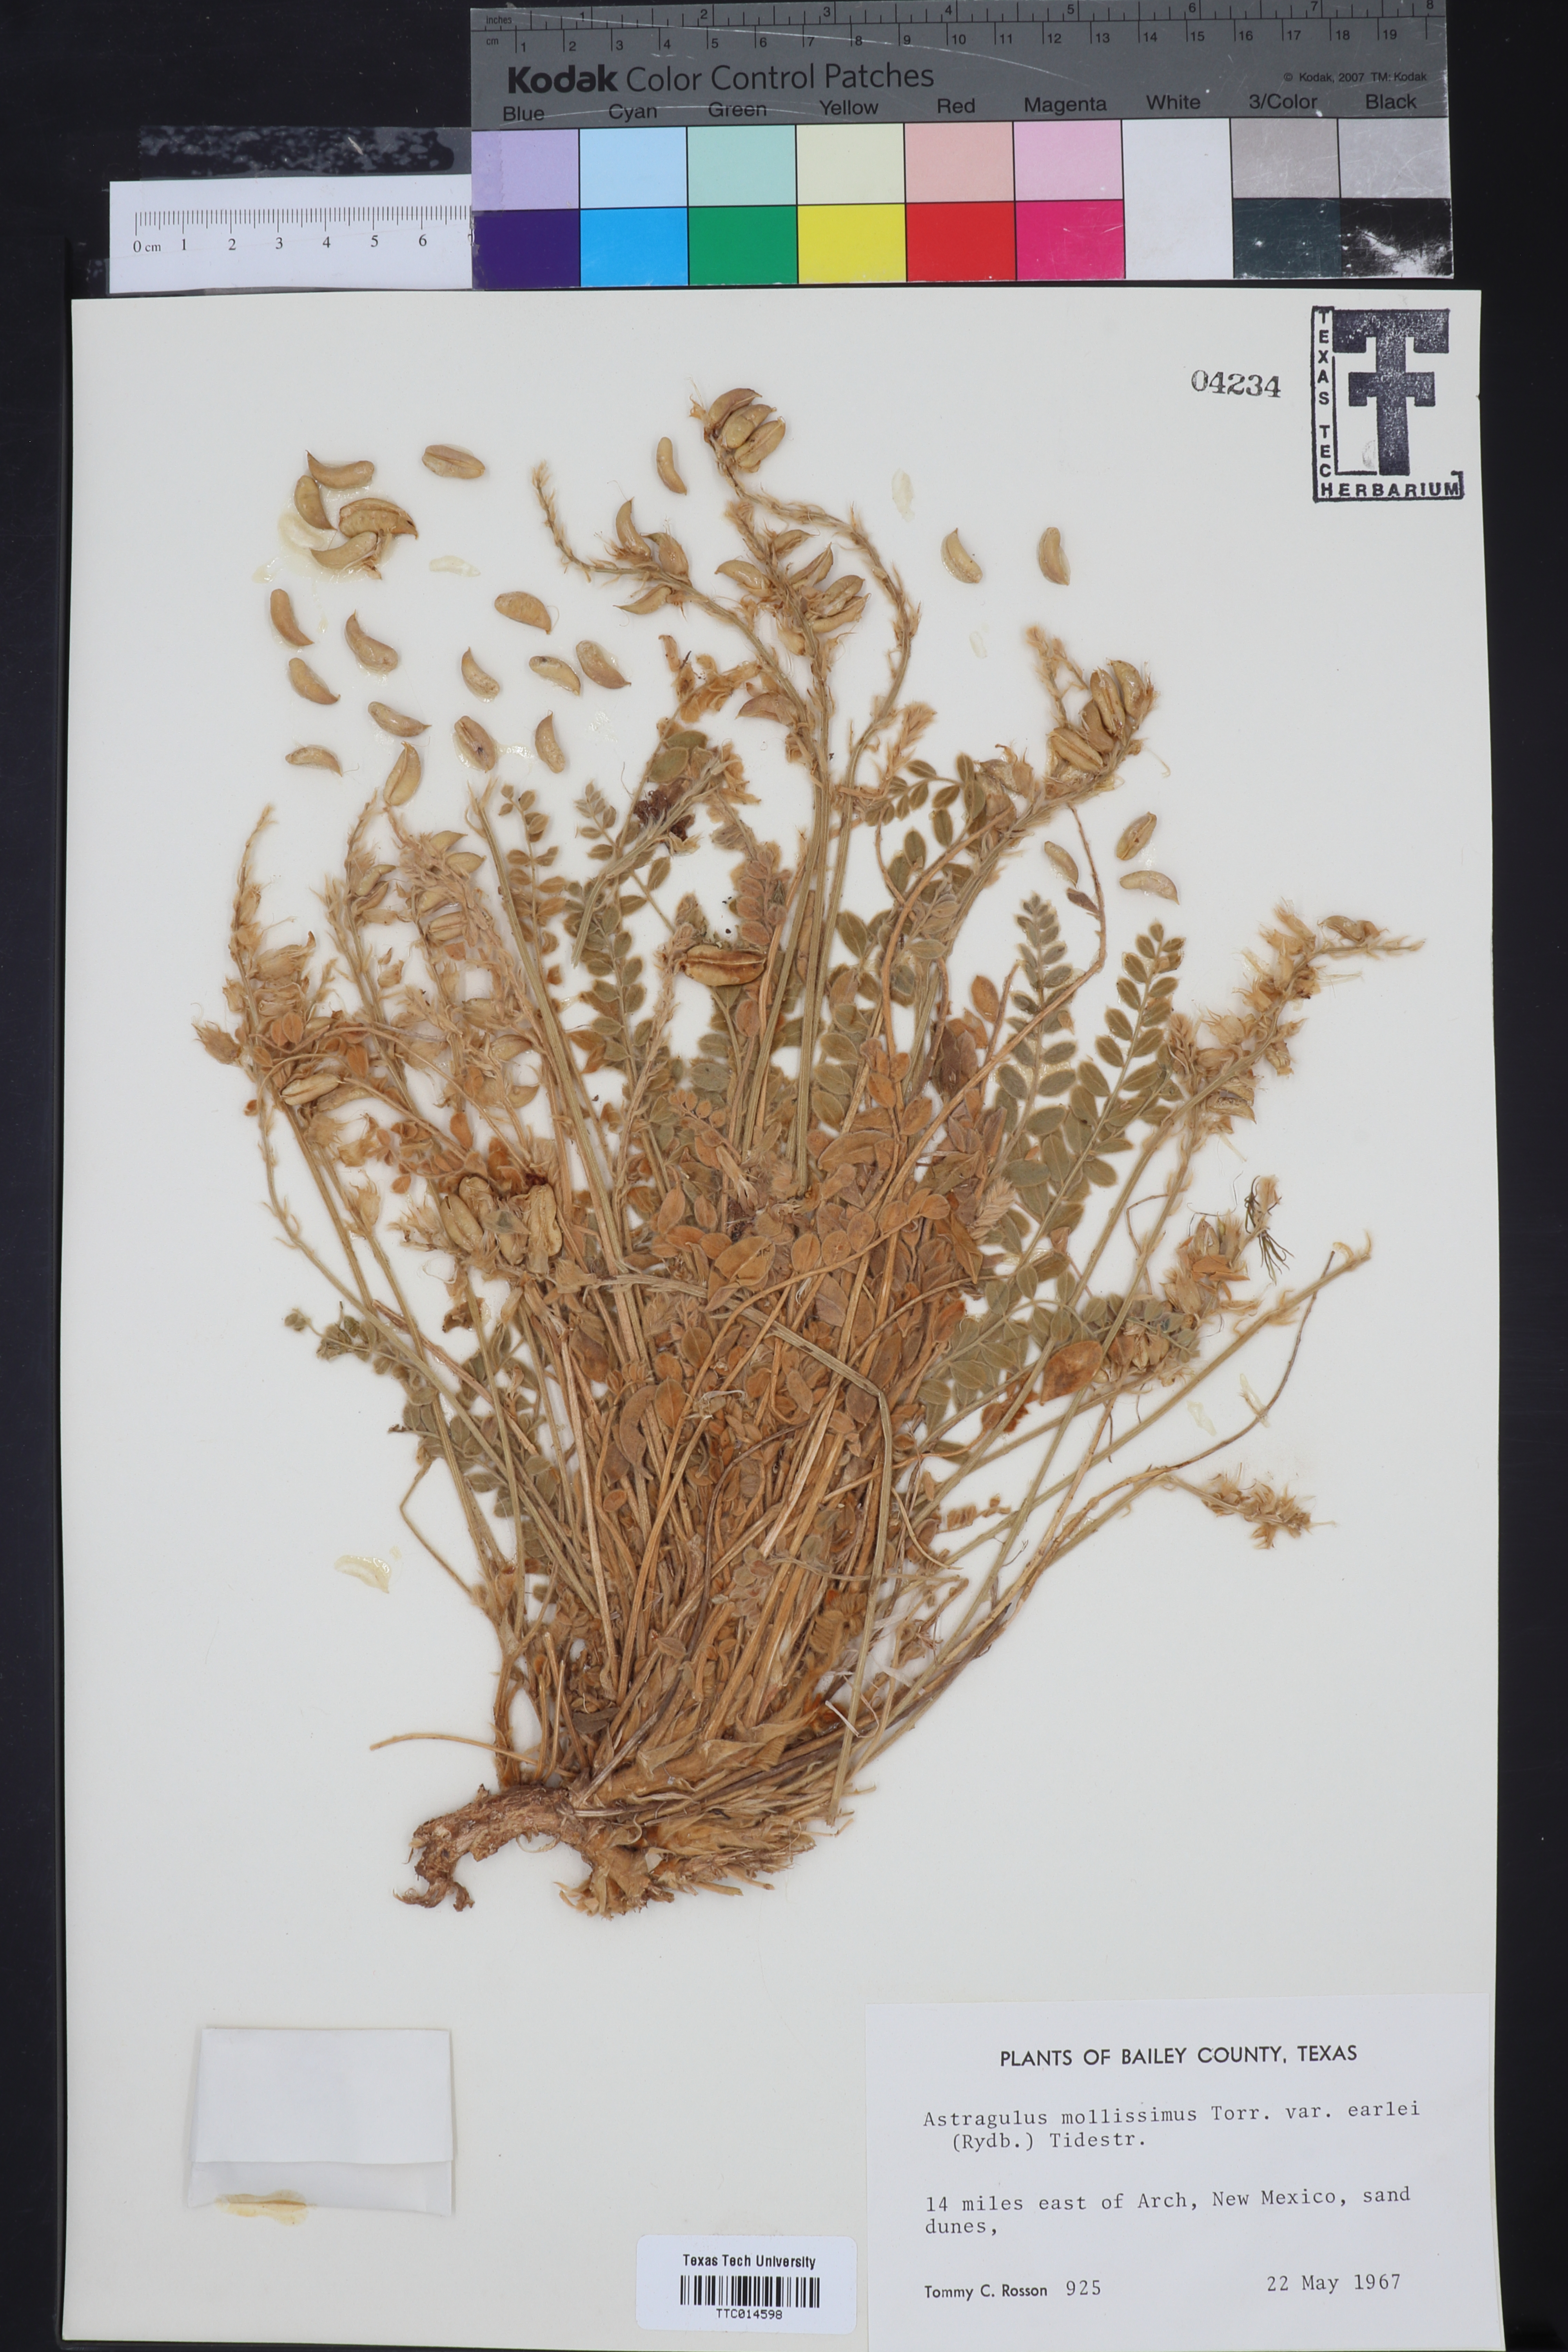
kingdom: Plantae
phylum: Tracheophyta
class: Magnoliopsida
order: Fabales
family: Fabaceae
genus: Astragalus
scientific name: Astragalus missouriensis
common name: Missouri milk-vetch
